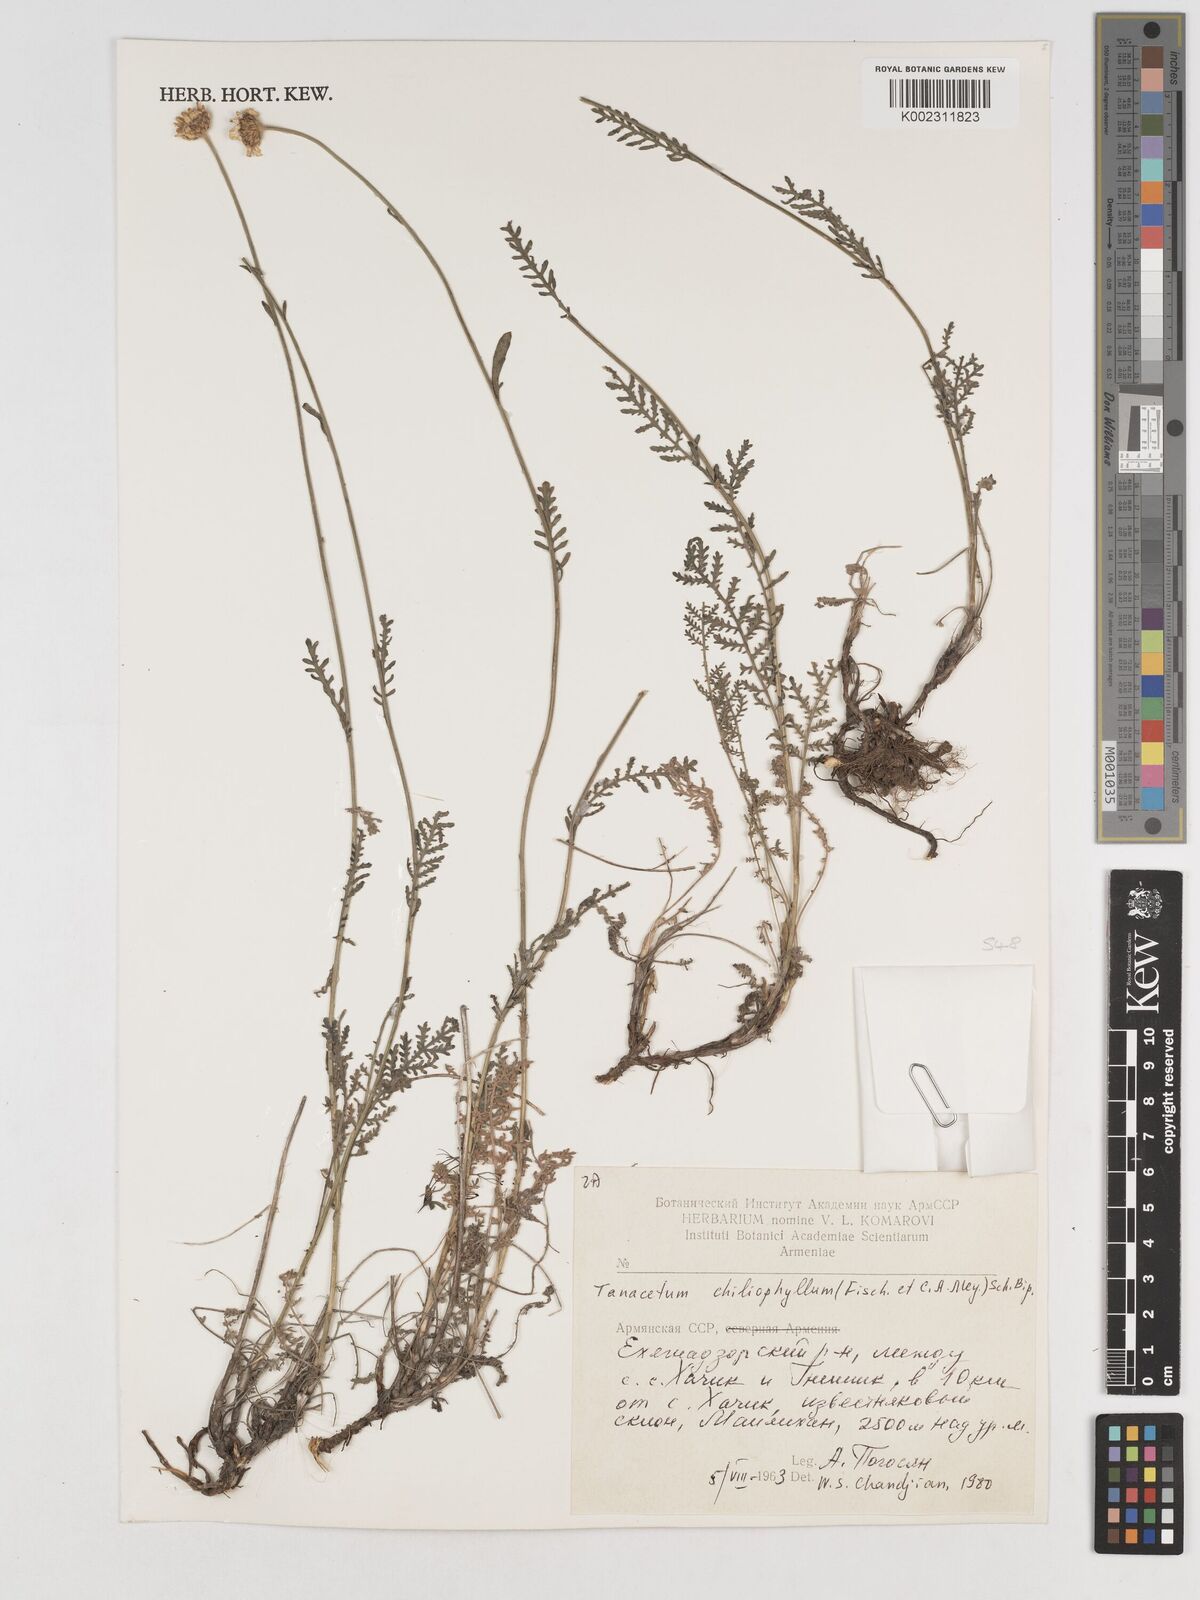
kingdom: Plantae
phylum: Tracheophyta
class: Magnoliopsida
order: Asterales
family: Asteraceae
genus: Tanacetum
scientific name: Tanacetum aureum
